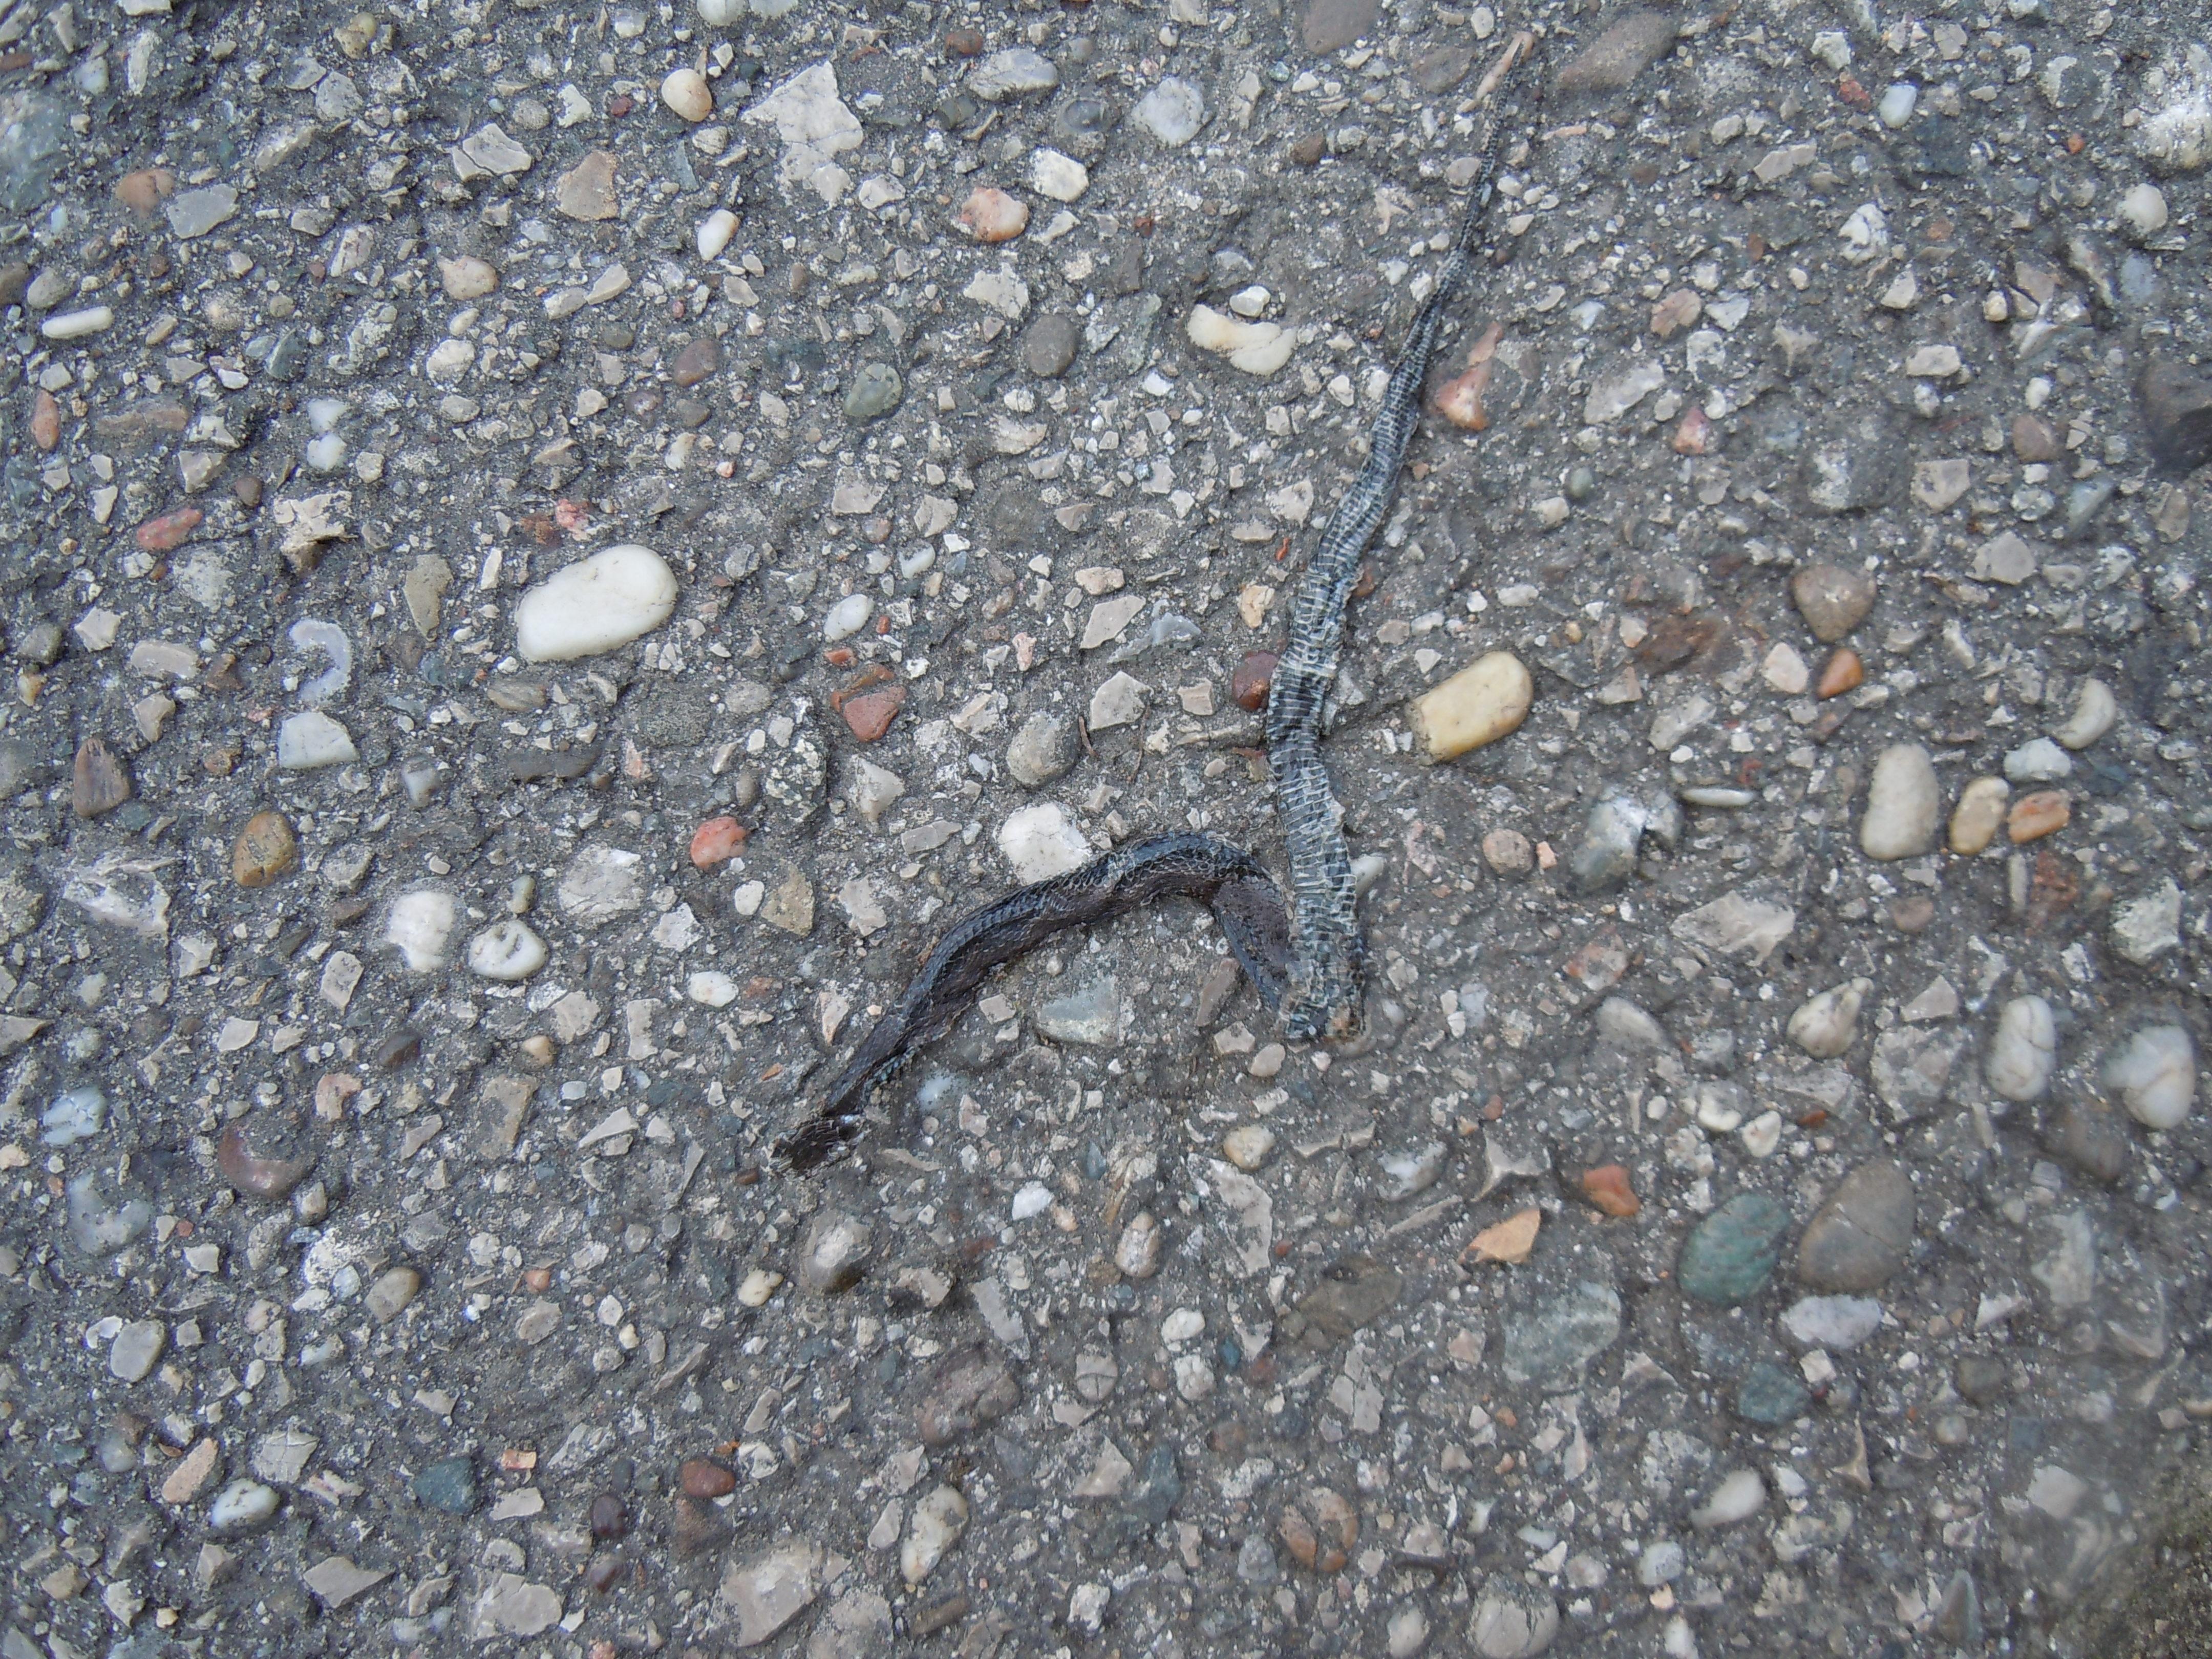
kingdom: Animalia
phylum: Chordata
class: Squamata
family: Colubridae
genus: Natrix
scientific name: Natrix natrix
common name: Grass snake
